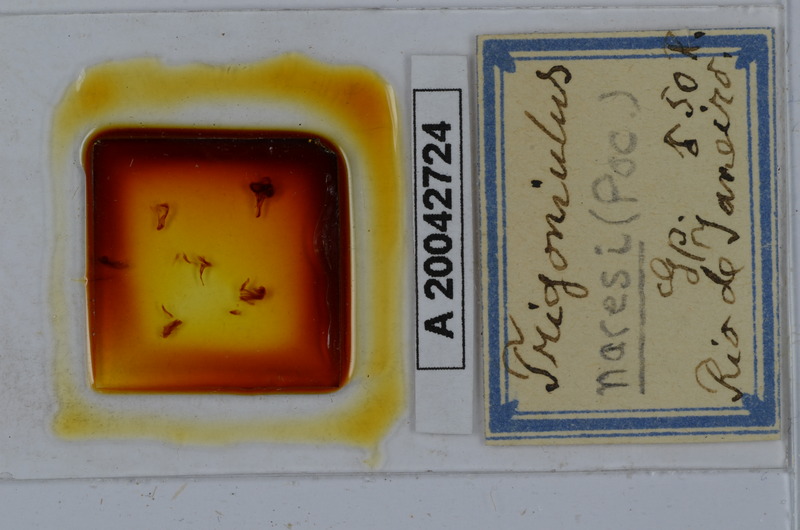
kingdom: Animalia
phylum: Arthropoda
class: Diplopoda
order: Spirobolida
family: Pachybolidae
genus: Leptogoniulus
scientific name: Leptogoniulus sorornus
